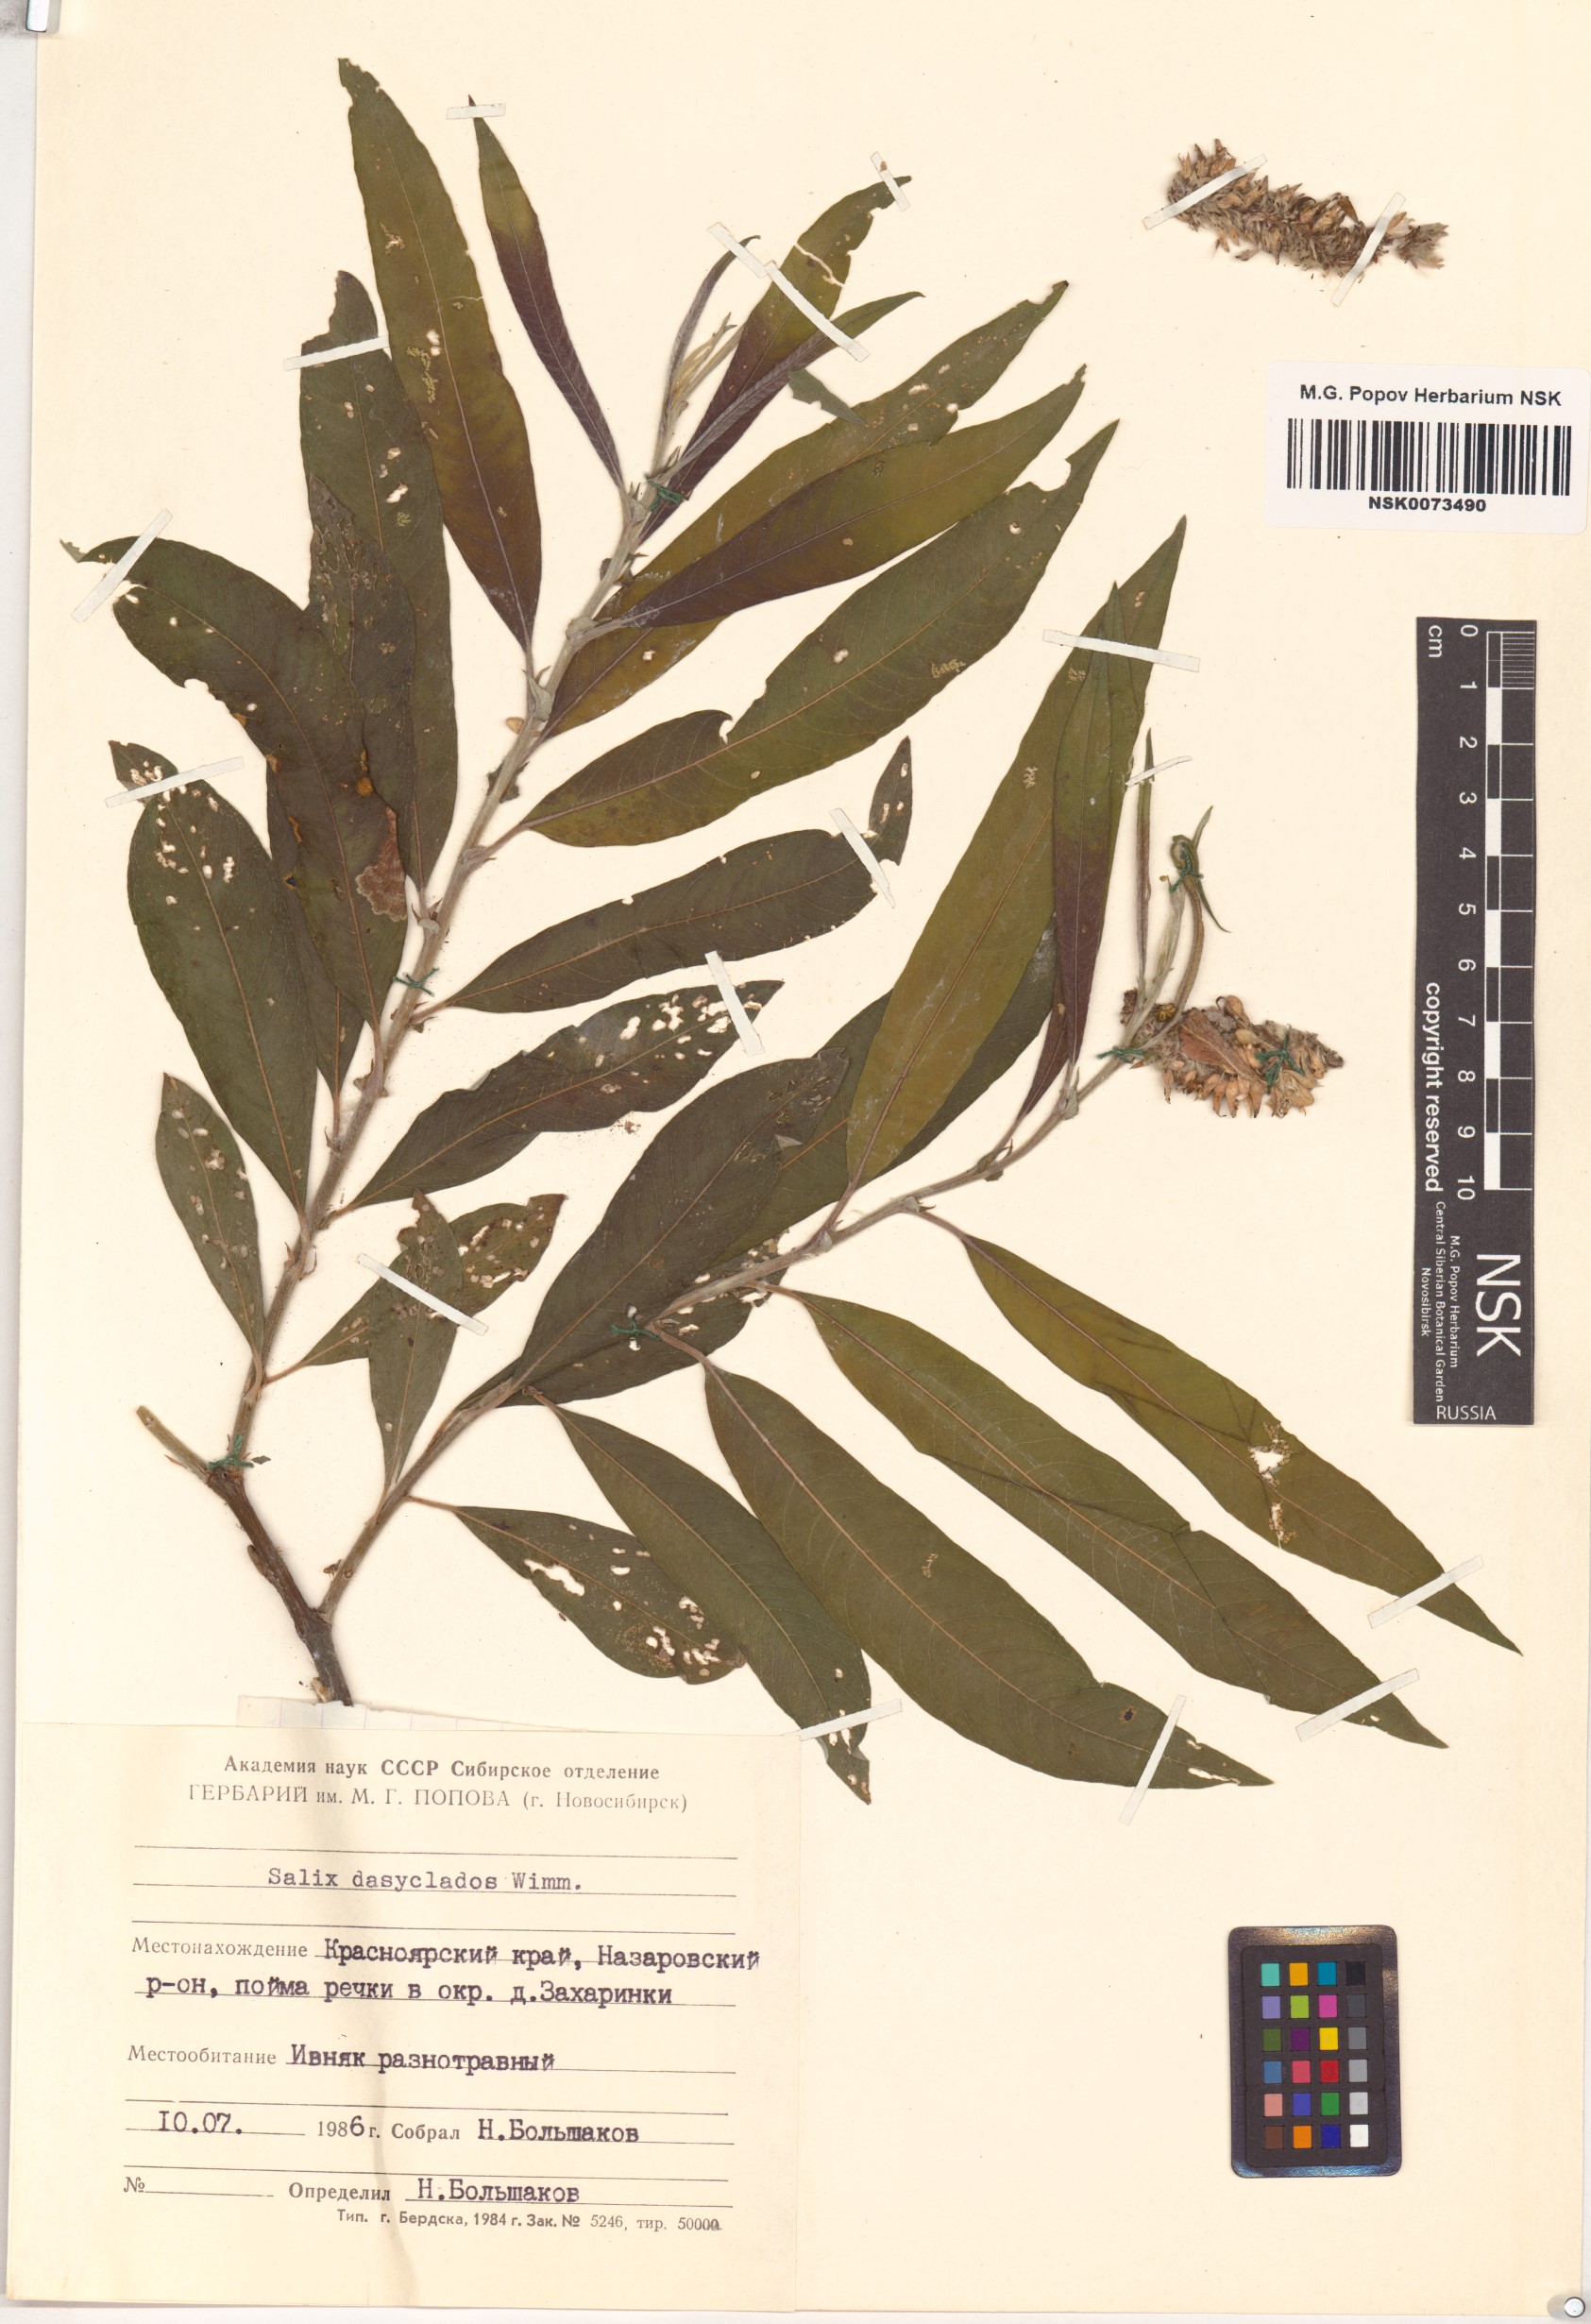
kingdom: Plantae
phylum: Tracheophyta
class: Magnoliopsida
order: Malpighiales
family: Salicaceae
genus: Salix
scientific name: Salix gmelinii
